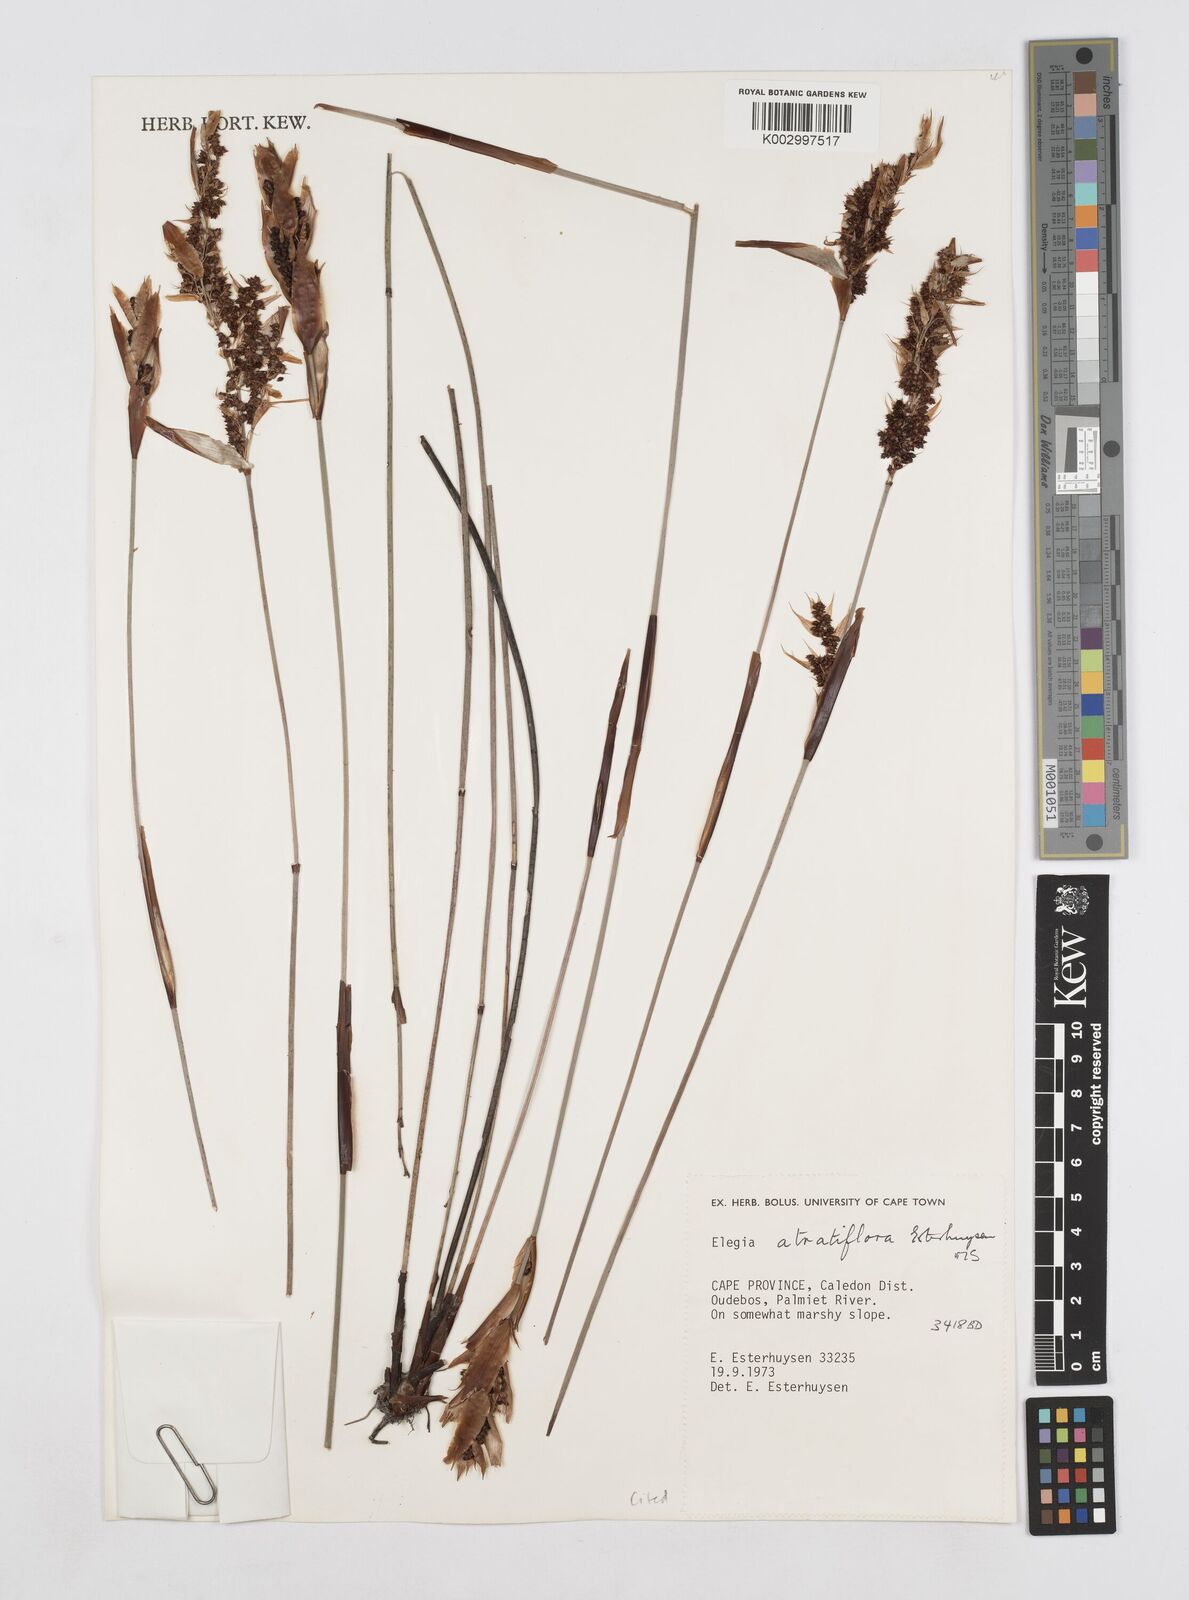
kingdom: Plantae
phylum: Tracheophyta
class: Liliopsida
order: Poales
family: Restionaceae
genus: Elegia
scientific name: Elegia atratiflora
